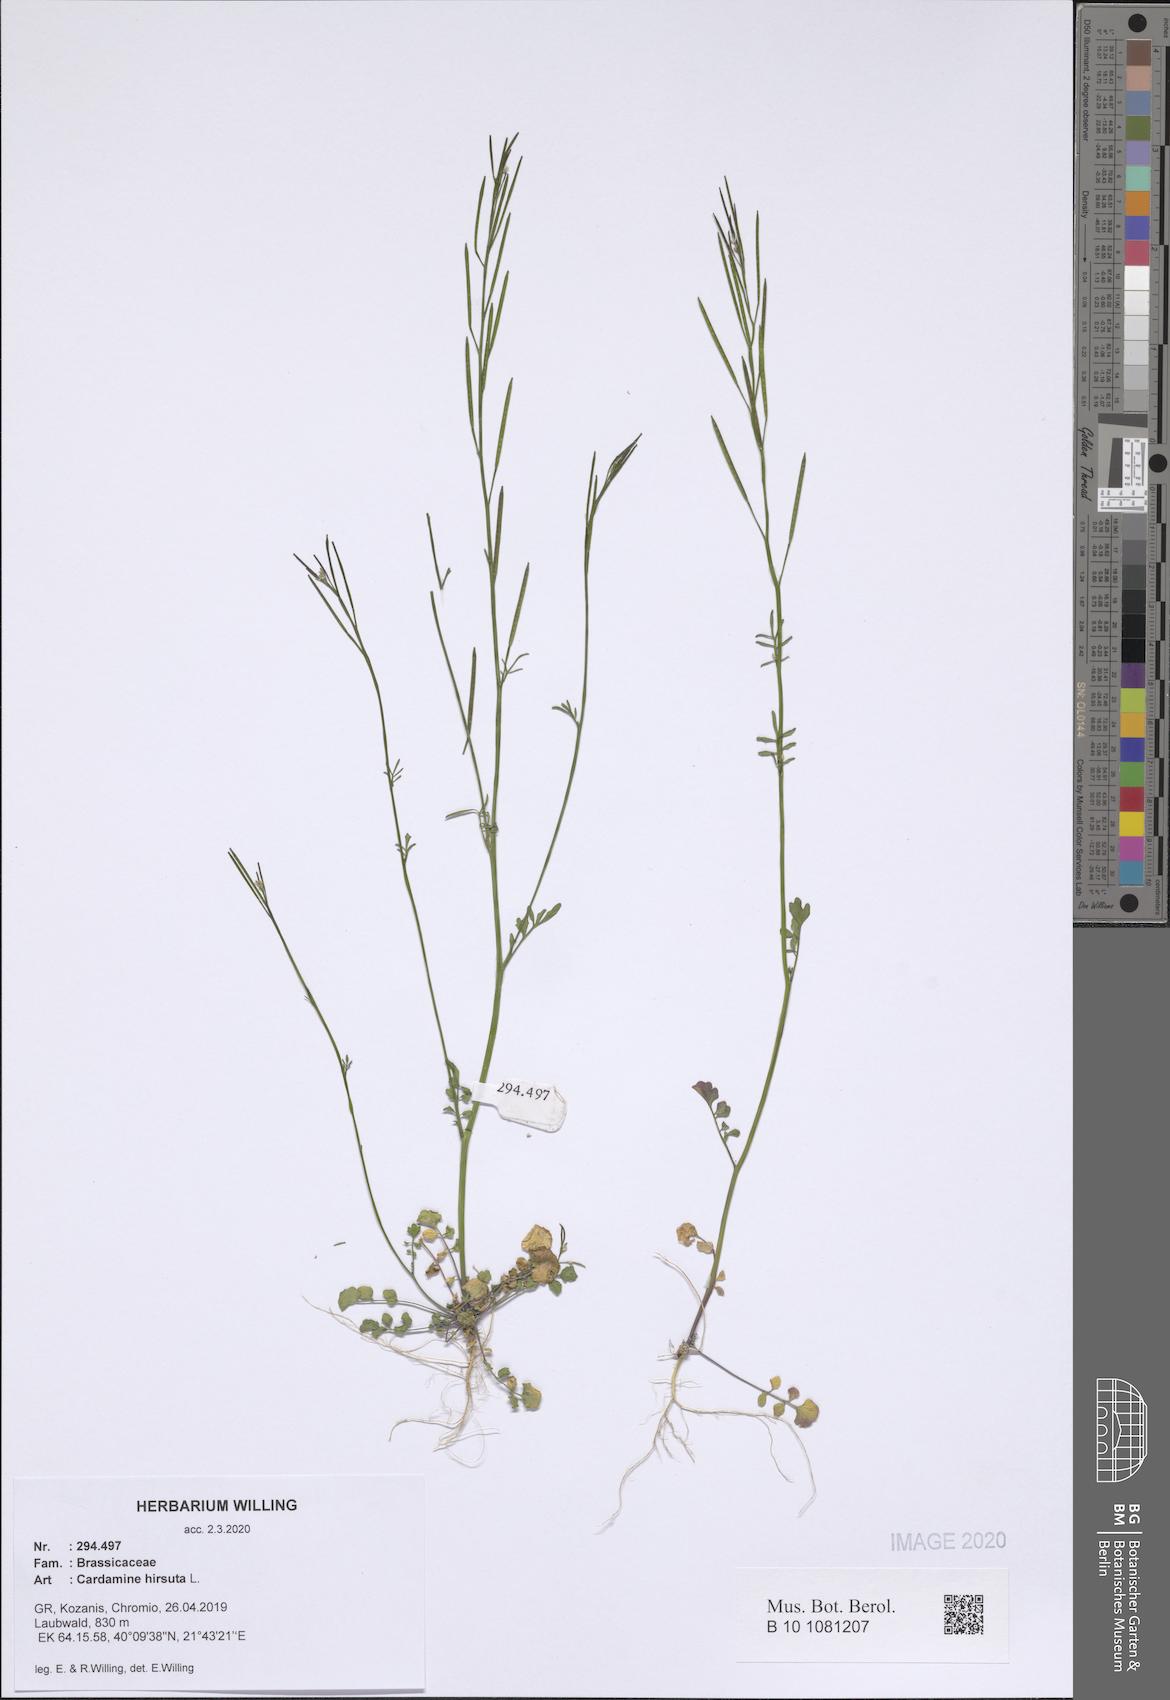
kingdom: Plantae
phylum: Tracheophyta
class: Magnoliopsida
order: Brassicales
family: Brassicaceae
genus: Cardamine
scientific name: Cardamine hirsuta
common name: Hairy bittercress
